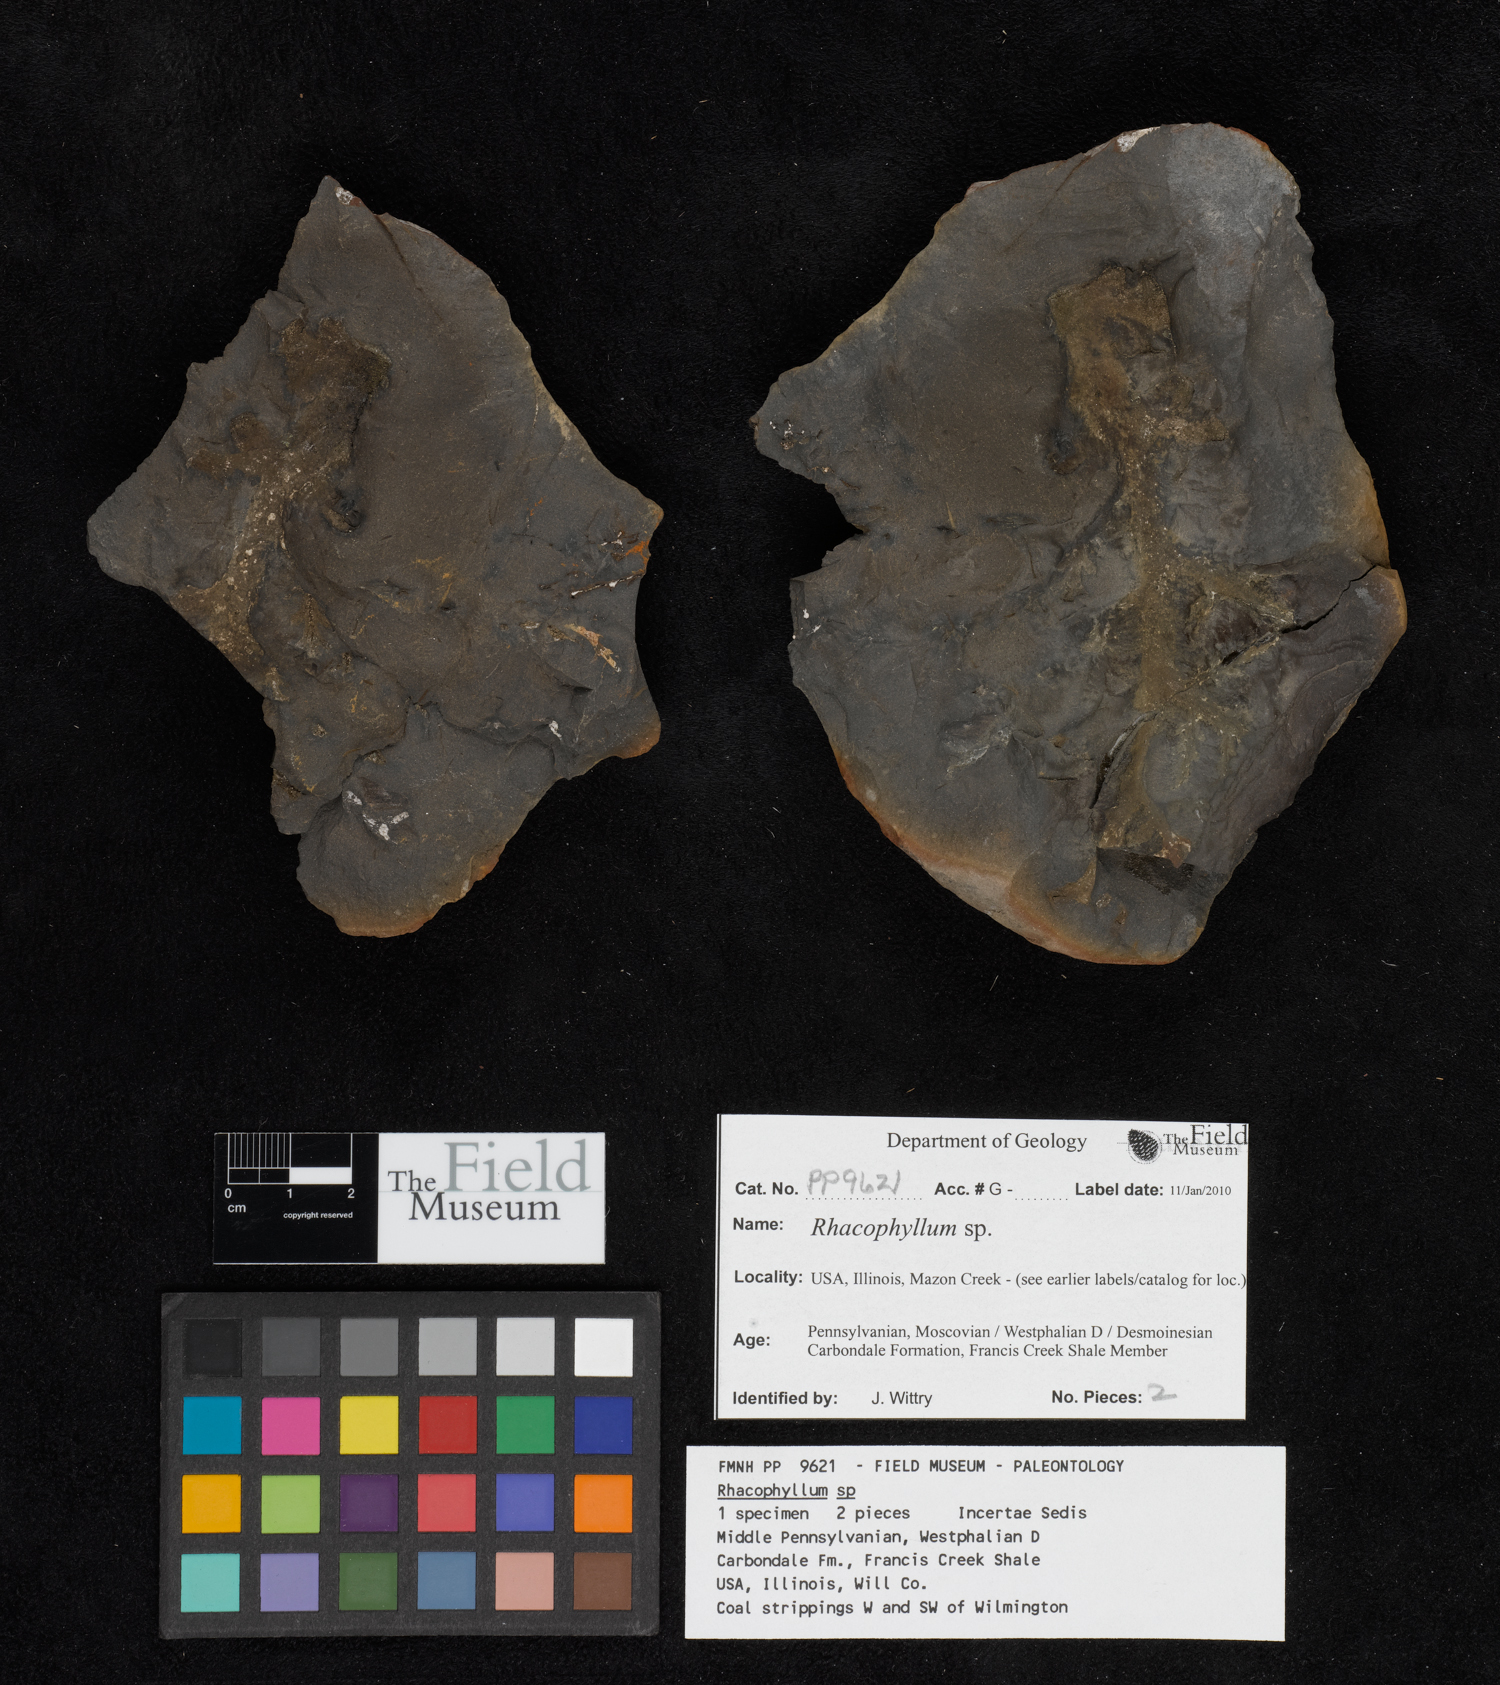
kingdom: Plantae
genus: Rhacophyllum
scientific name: Rhacophyllum
